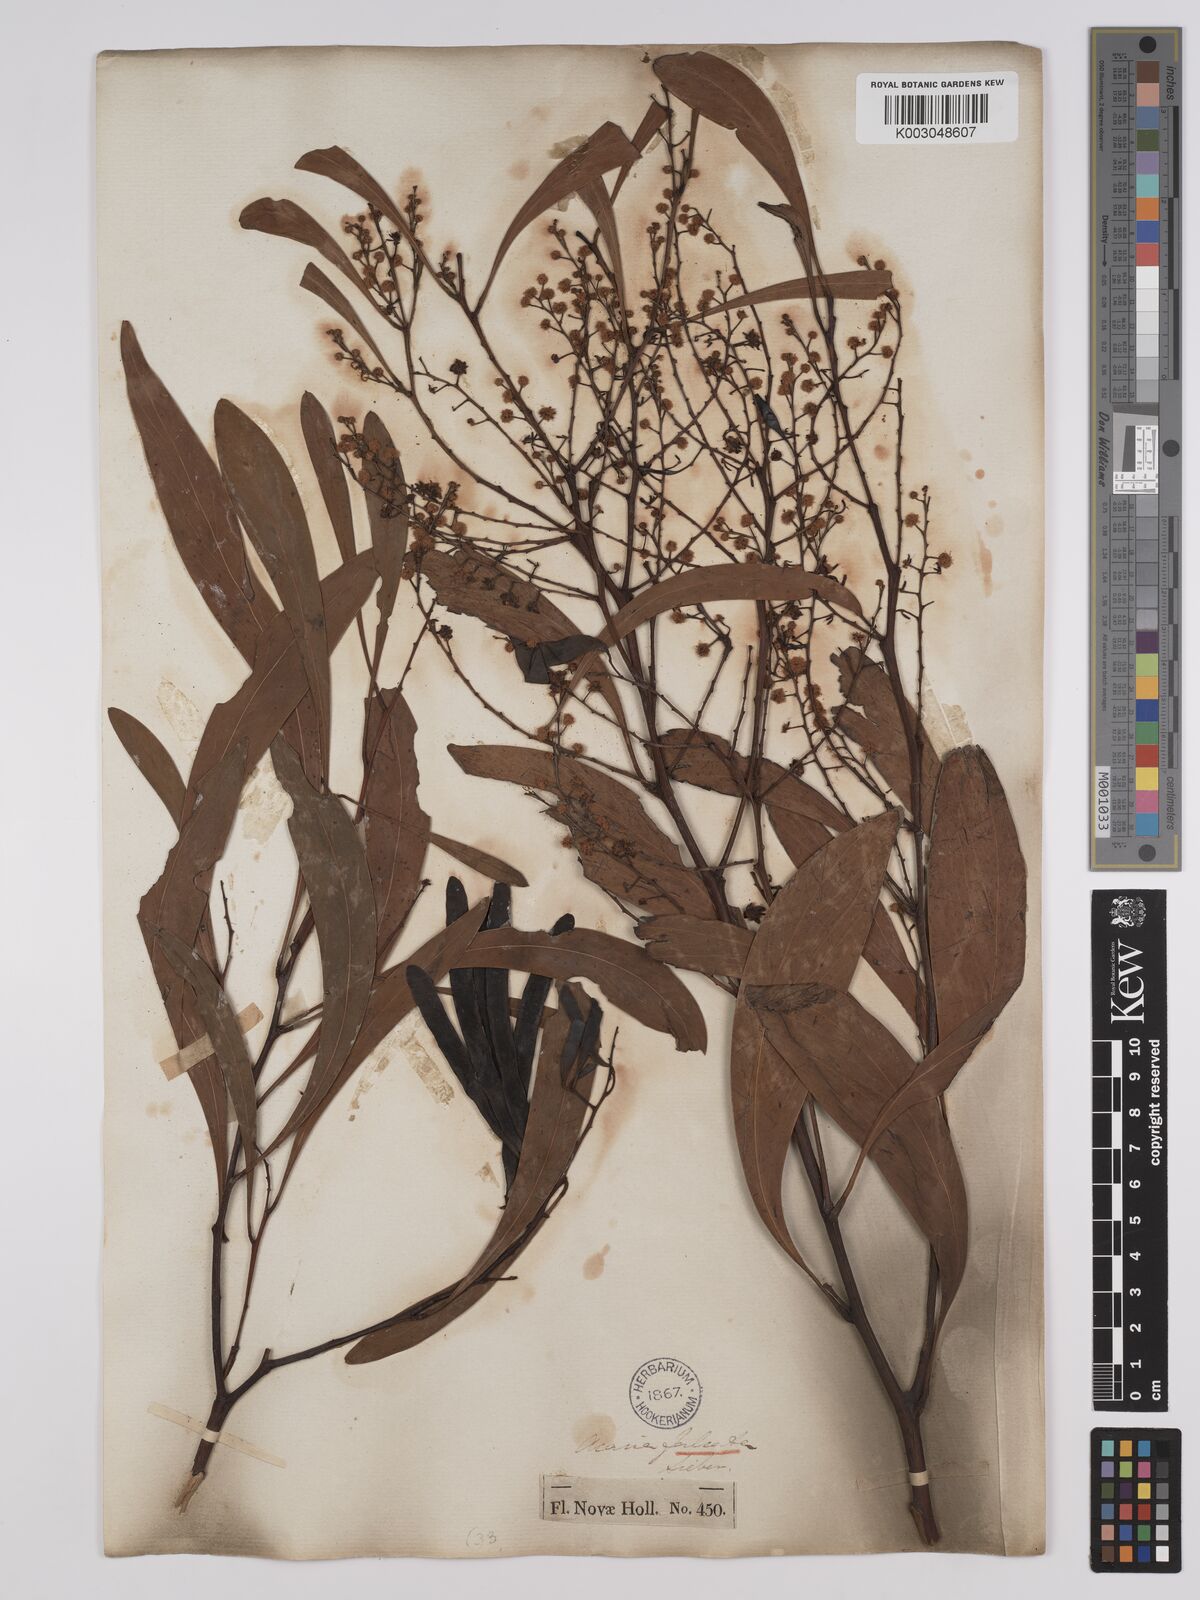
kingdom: Plantae
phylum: Tracheophyta
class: Magnoliopsida
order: Fabales
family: Fabaceae
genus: Acacia
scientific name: Acacia falcata
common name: Burra acacia
